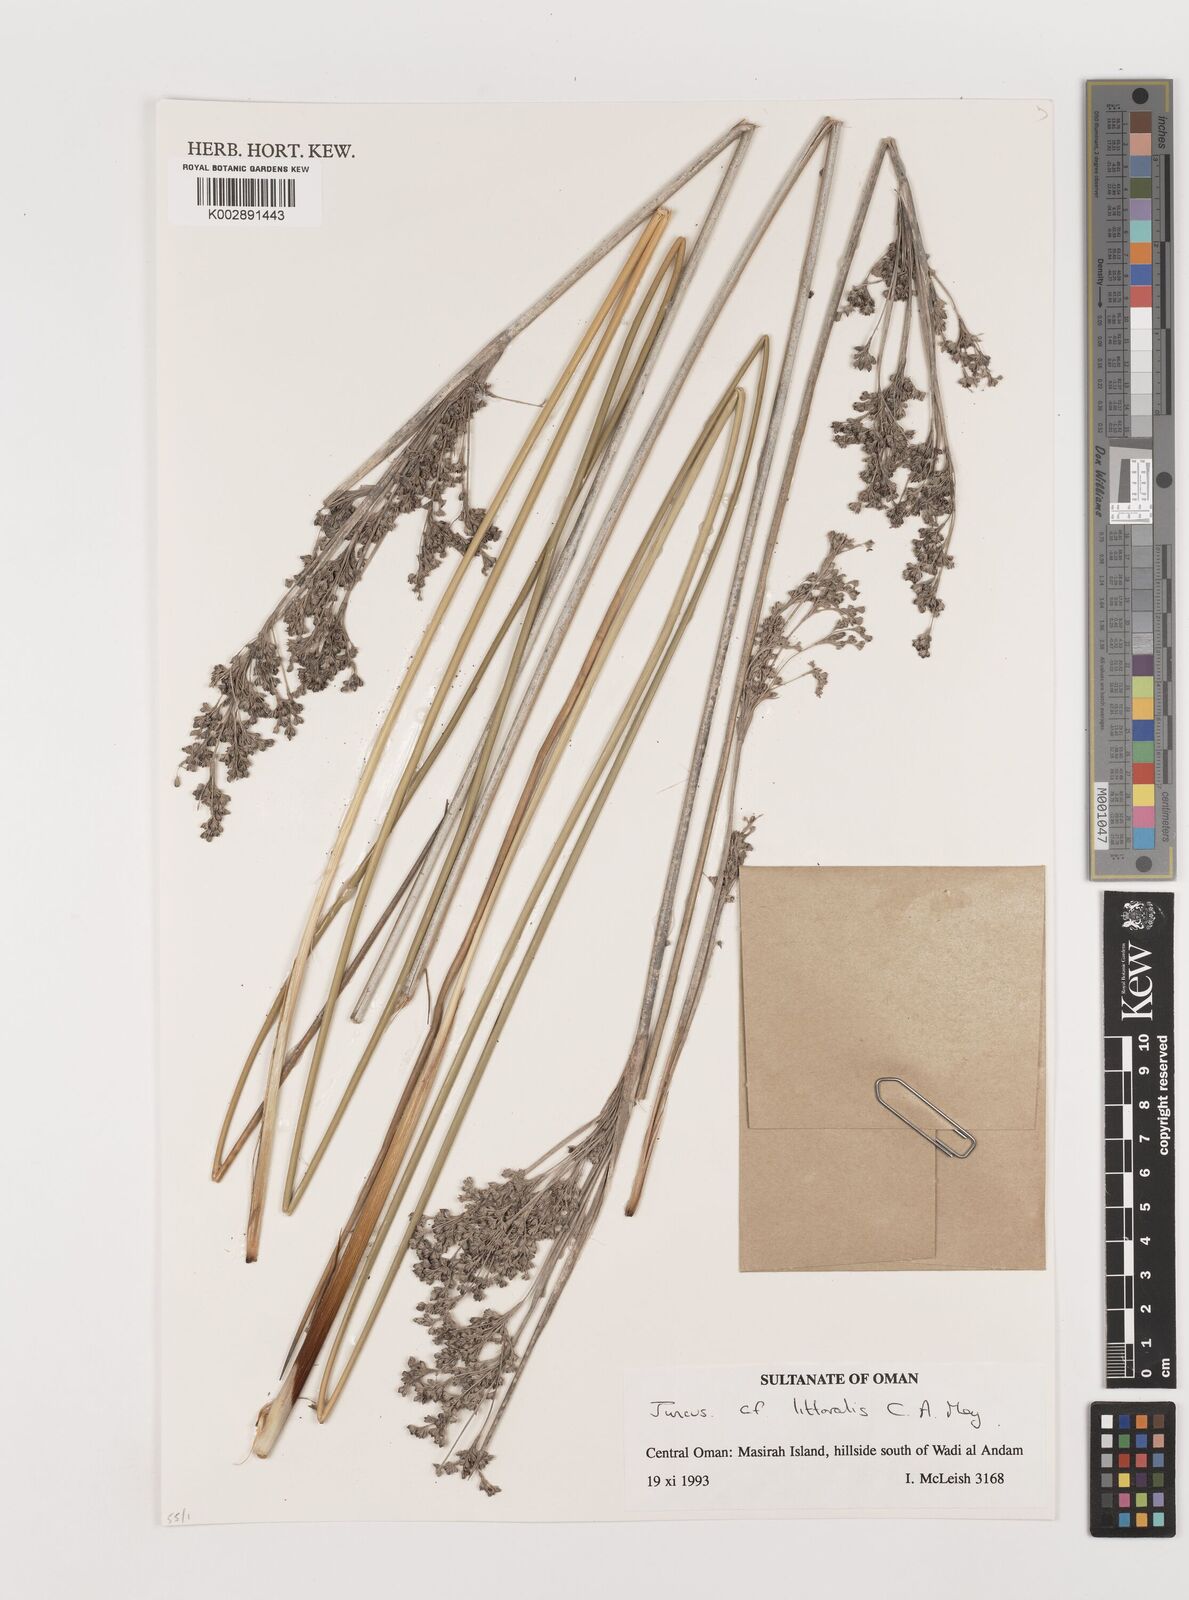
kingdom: Plantae
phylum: Tracheophyta
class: Liliopsida
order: Poales
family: Juncaceae
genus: Juncus
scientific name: Juncus littoralis
